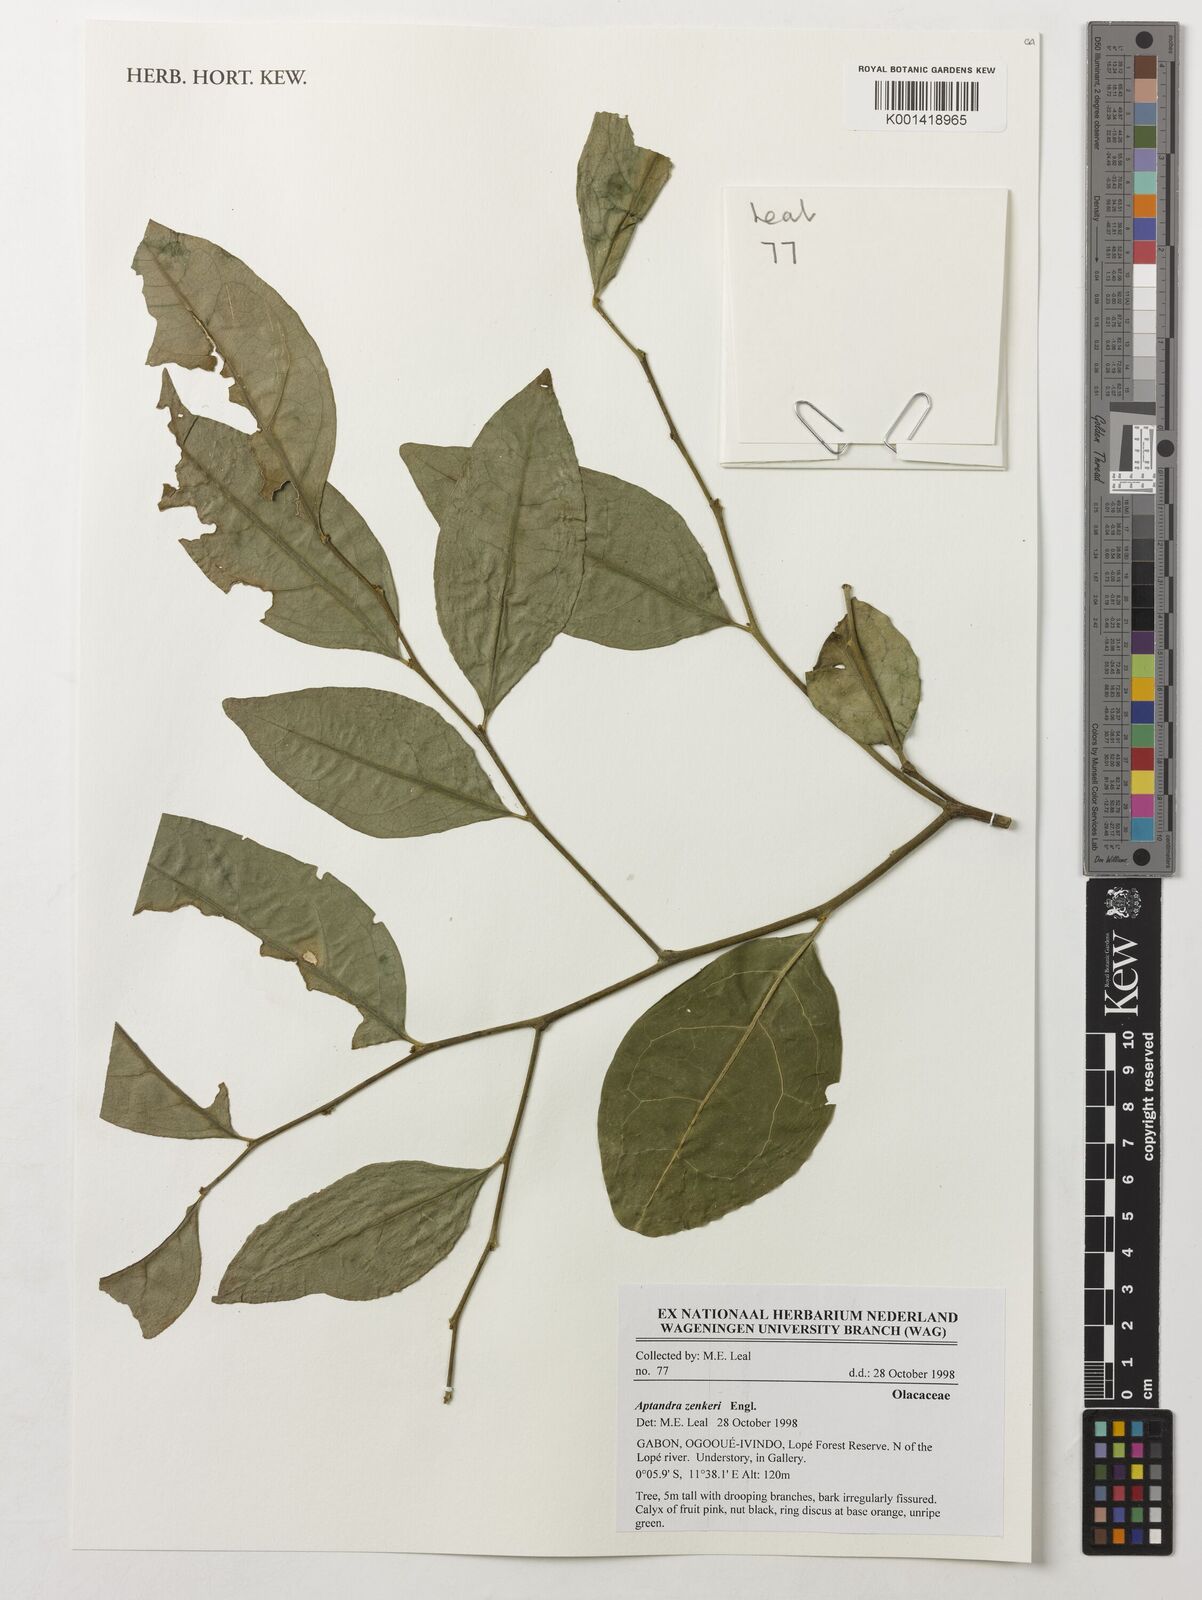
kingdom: Plantae
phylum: Tracheophyta
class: Magnoliopsida
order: Santalales
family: Aptandraceae
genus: Aptandra
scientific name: Aptandra zenkeri
